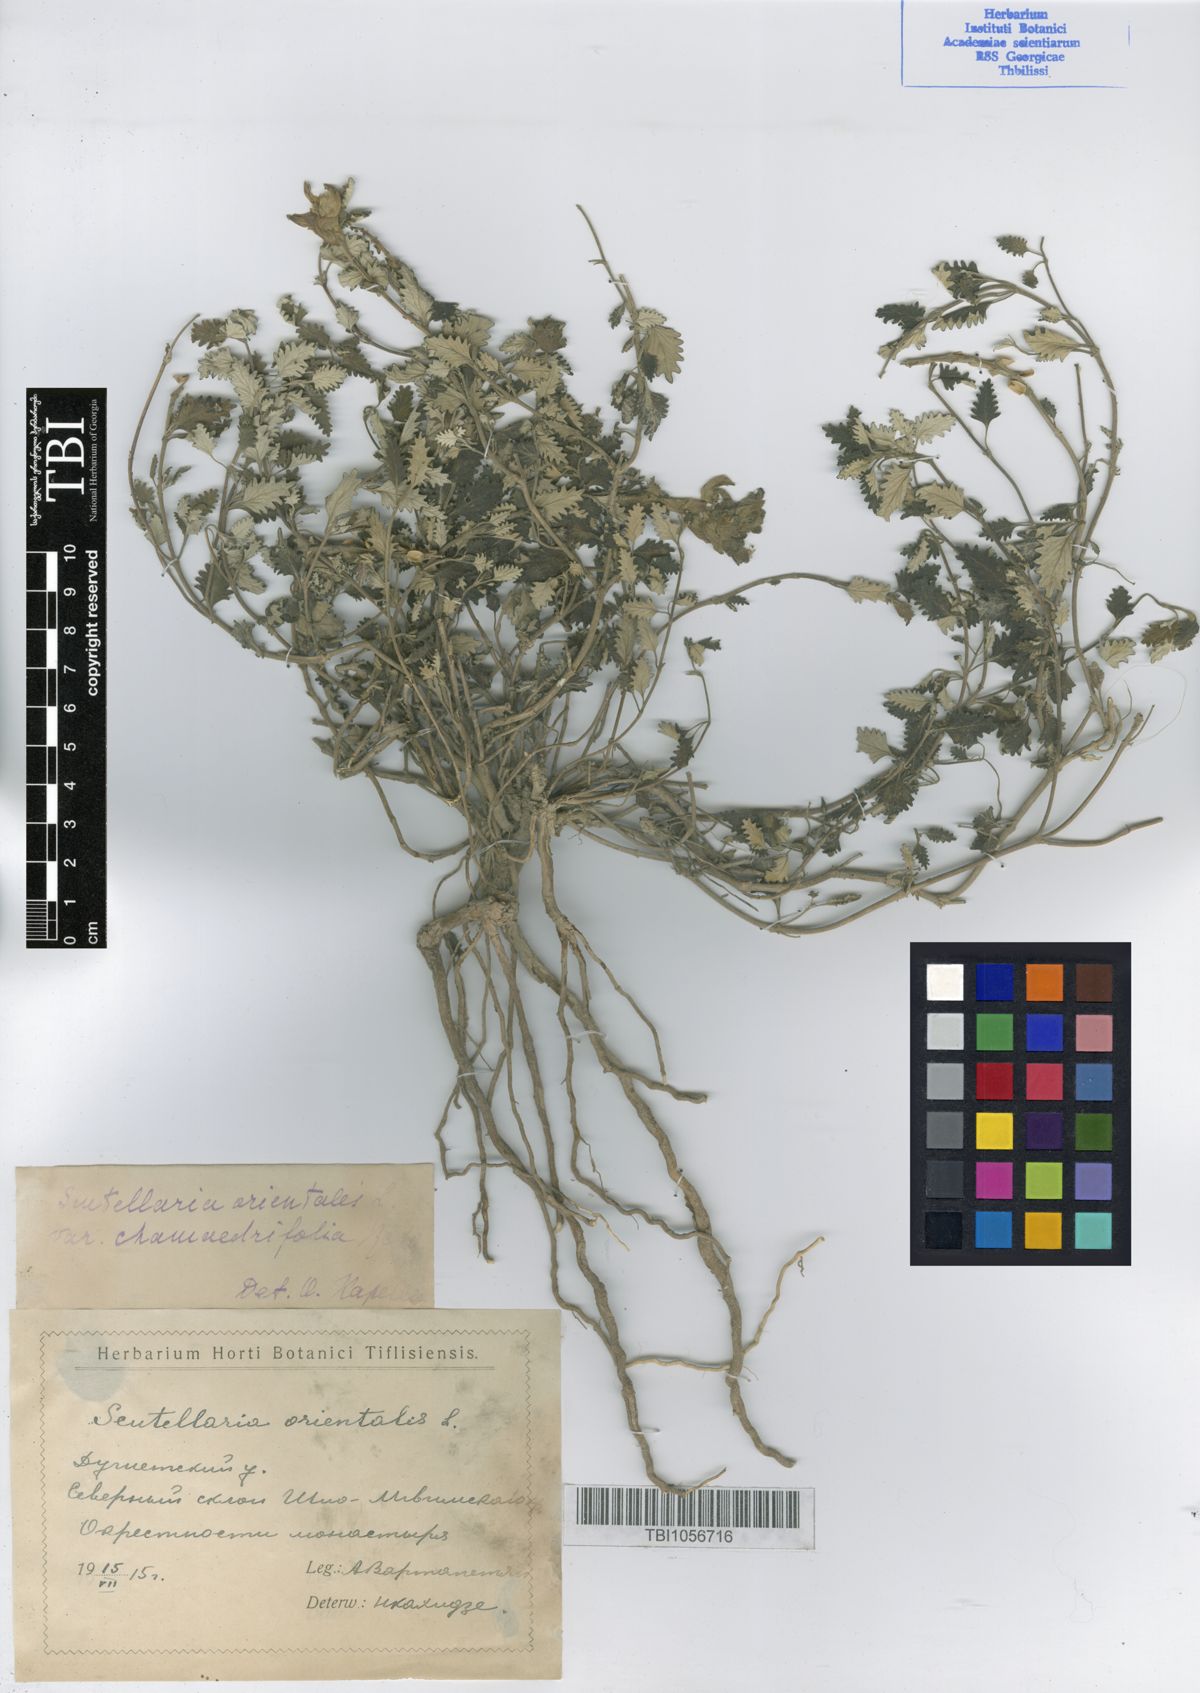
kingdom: Plantae
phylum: Tracheophyta
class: Magnoliopsida
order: Lamiales
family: Lamiaceae
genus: Scutellaria
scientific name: Scutellaria orientalis
